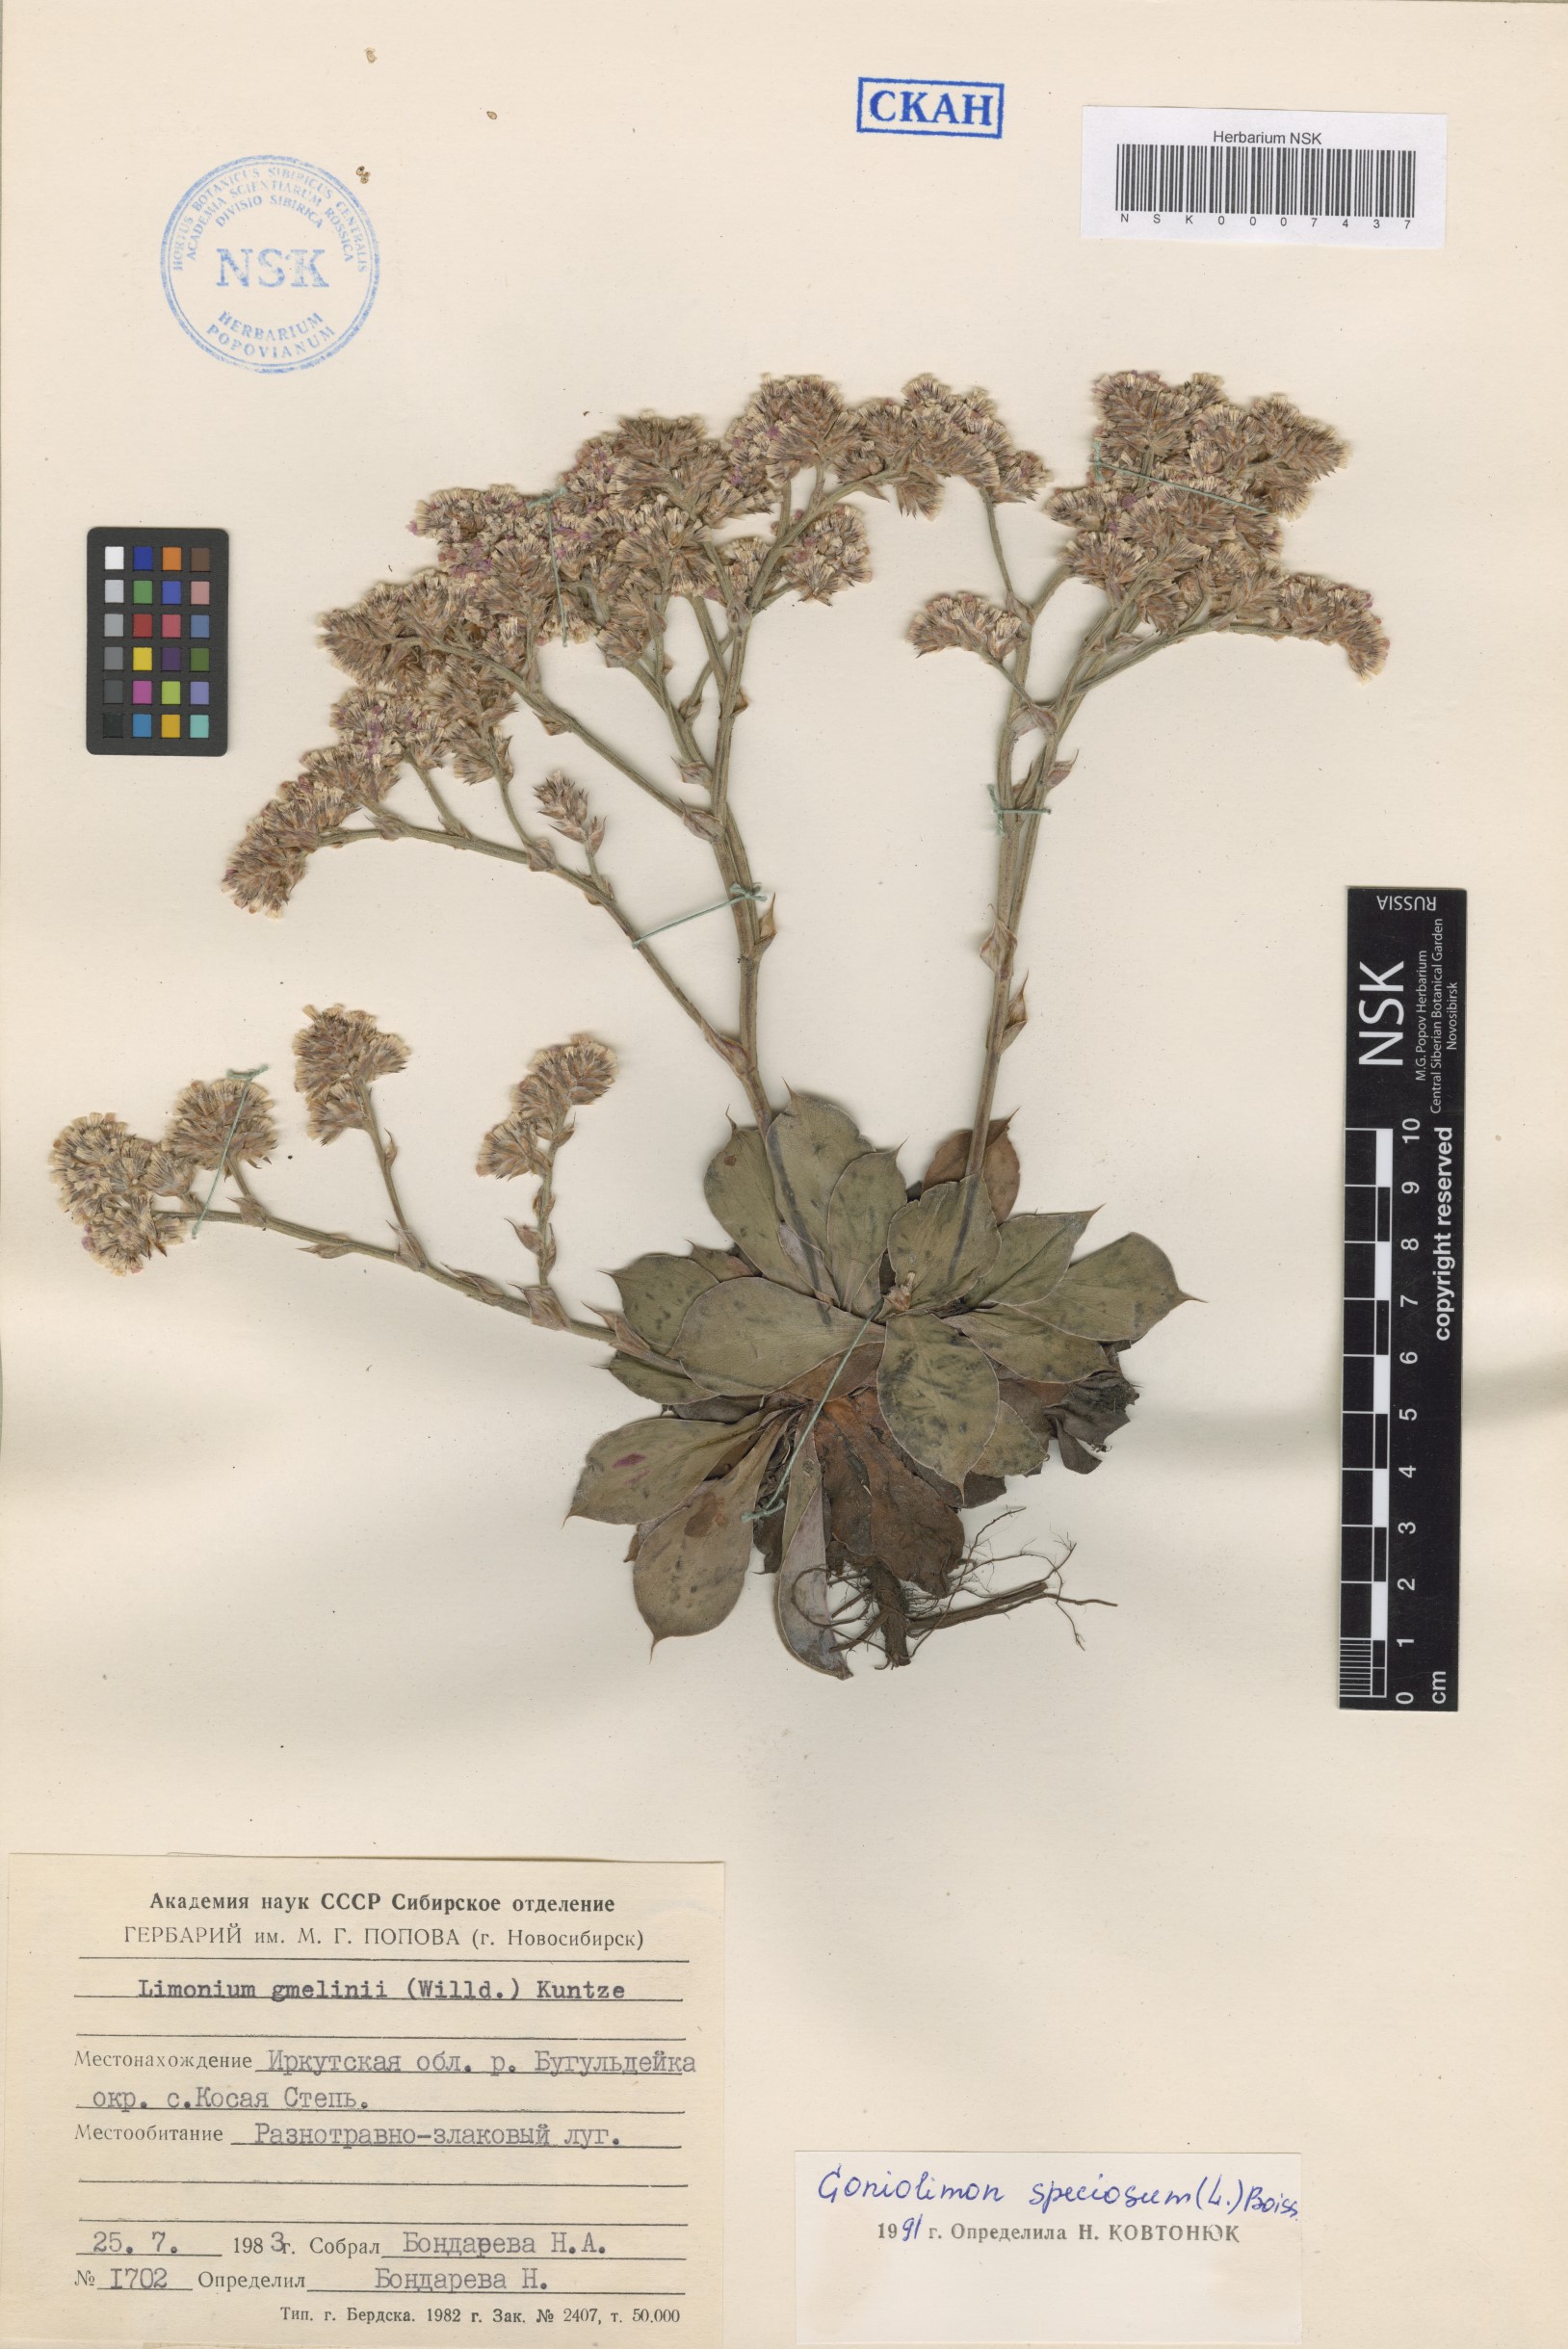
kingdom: Plantae
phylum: Tracheophyta
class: Magnoliopsida
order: Caryophyllales
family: Plumbaginaceae
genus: Goniolimon
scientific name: Goniolimon speciosum
